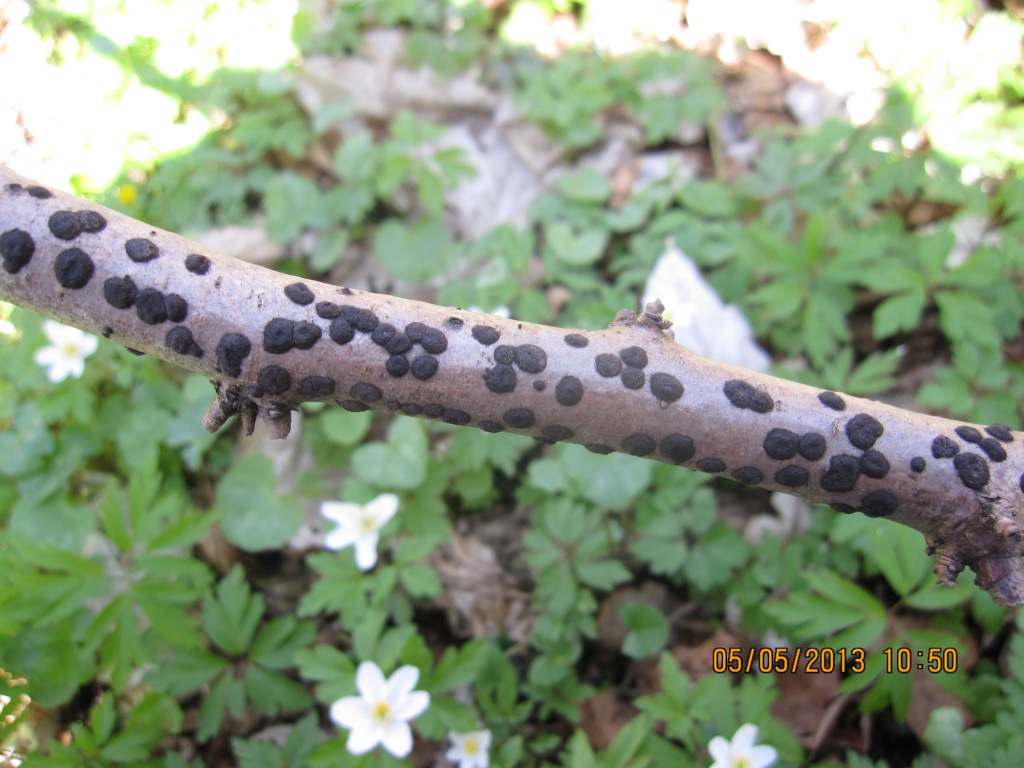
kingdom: Fungi
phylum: Ascomycota
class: Sordariomycetes
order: Xylariales
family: Hypoxylaceae
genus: Hypoxylon
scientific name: Hypoxylon fuscum
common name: kegleformet kulbær
